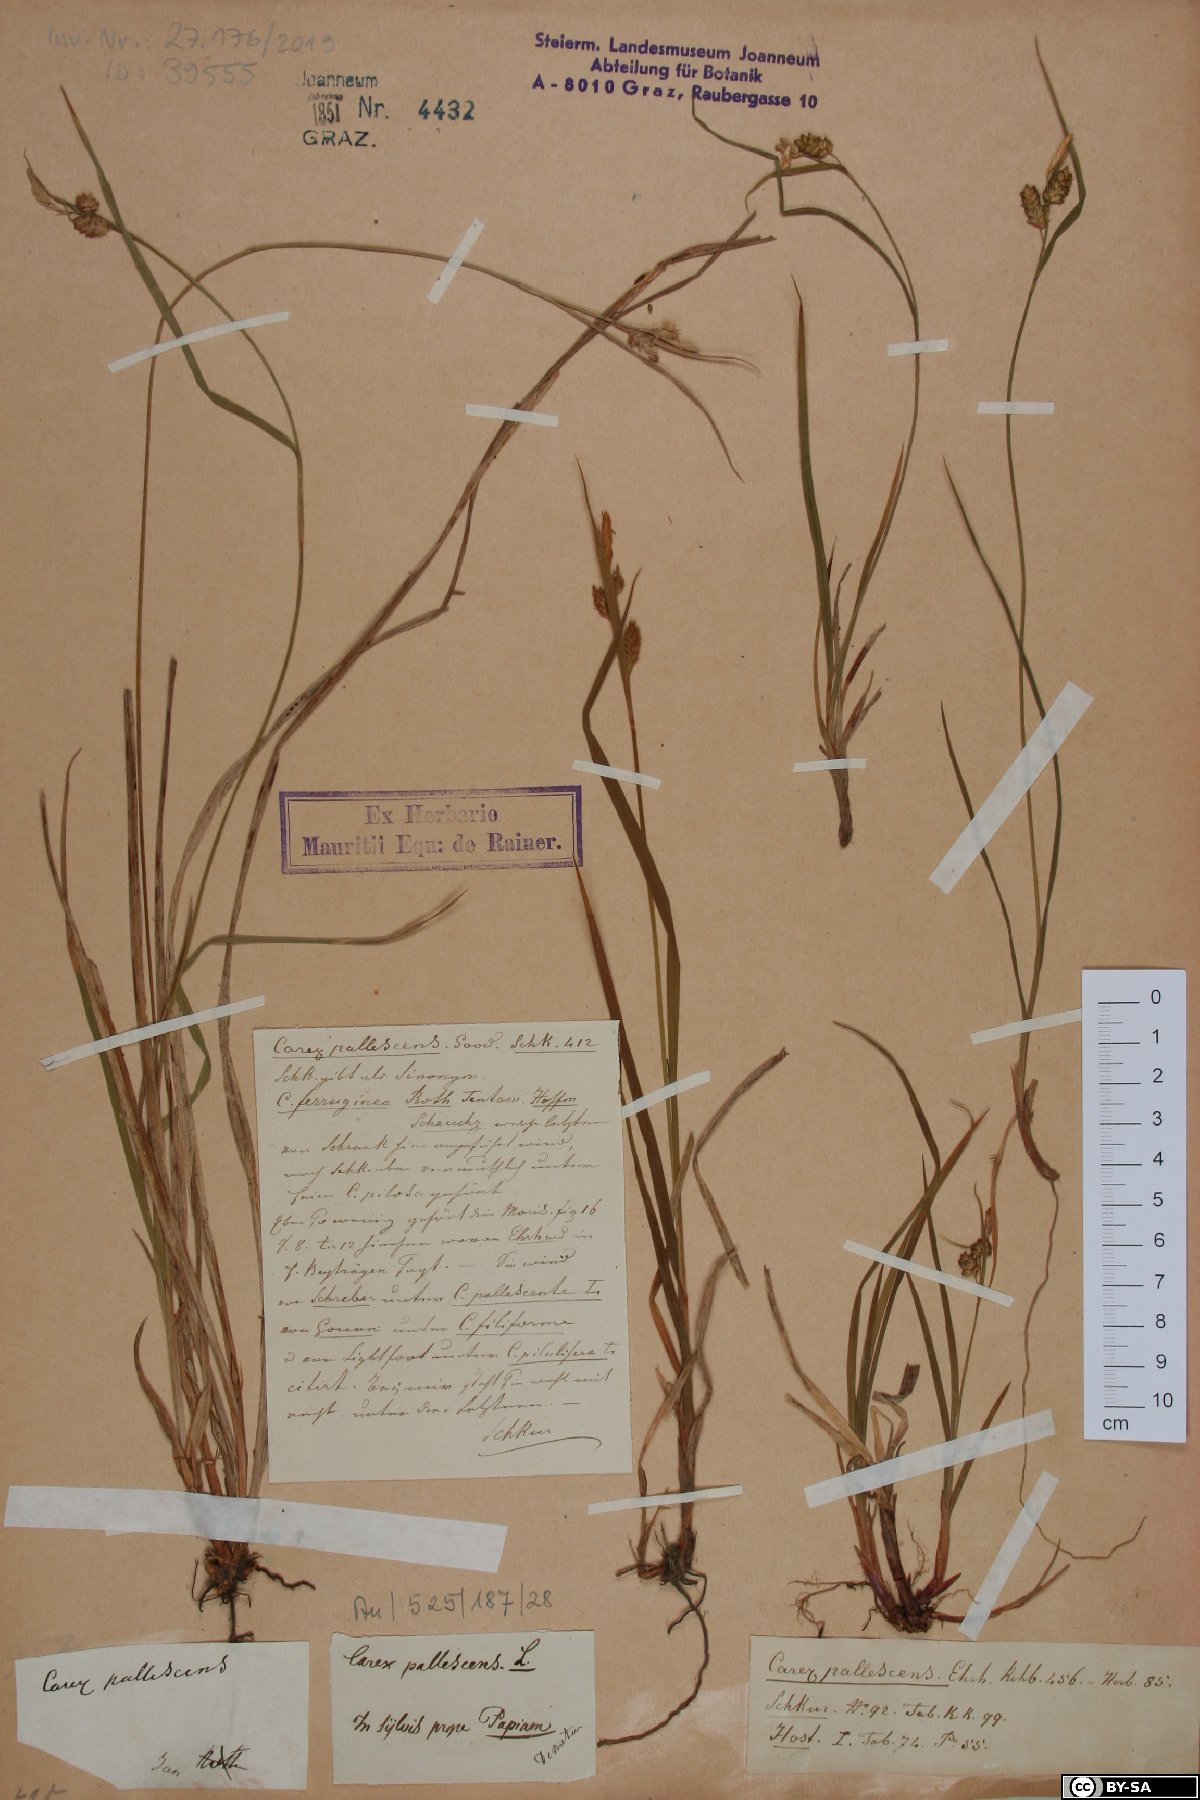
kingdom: Plantae
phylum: Tracheophyta
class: Liliopsida
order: Poales
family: Cyperaceae
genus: Carex
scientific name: Carex pallescens
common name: Pale sedge
